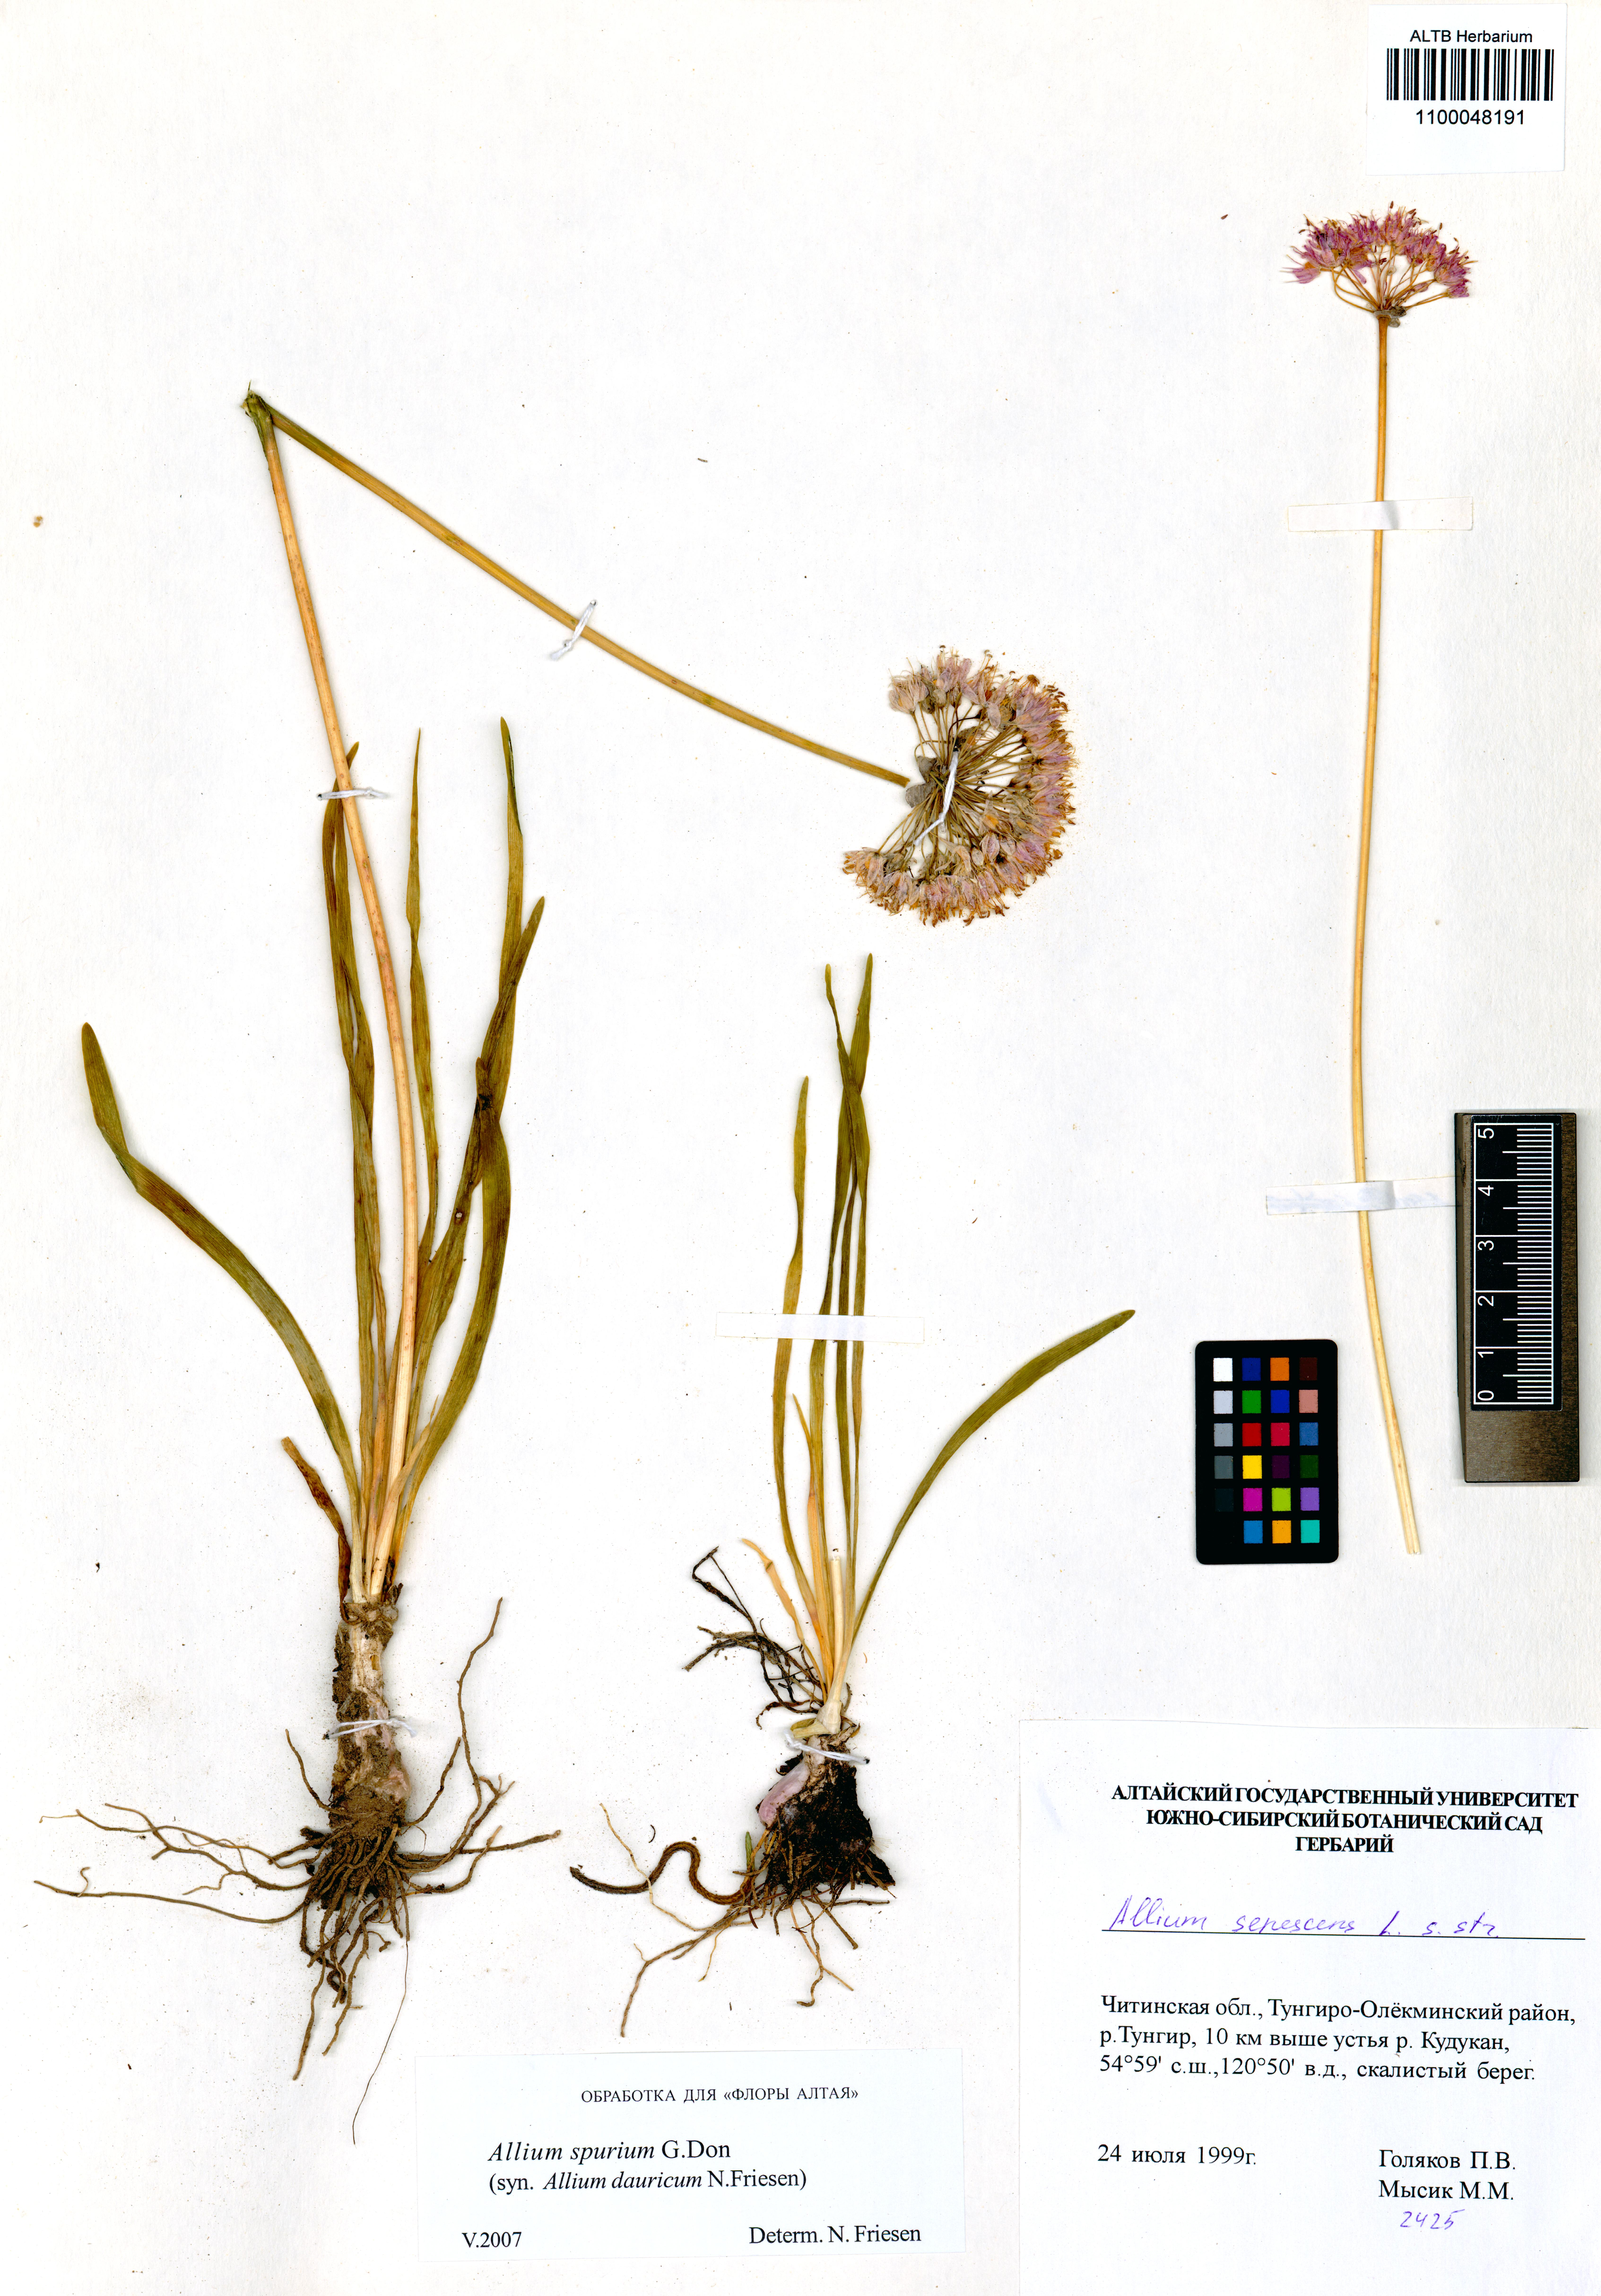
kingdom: Plantae
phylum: Tracheophyta
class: Liliopsida
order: Asparagales
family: Amaryllidaceae
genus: Allium
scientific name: Allium spurium
